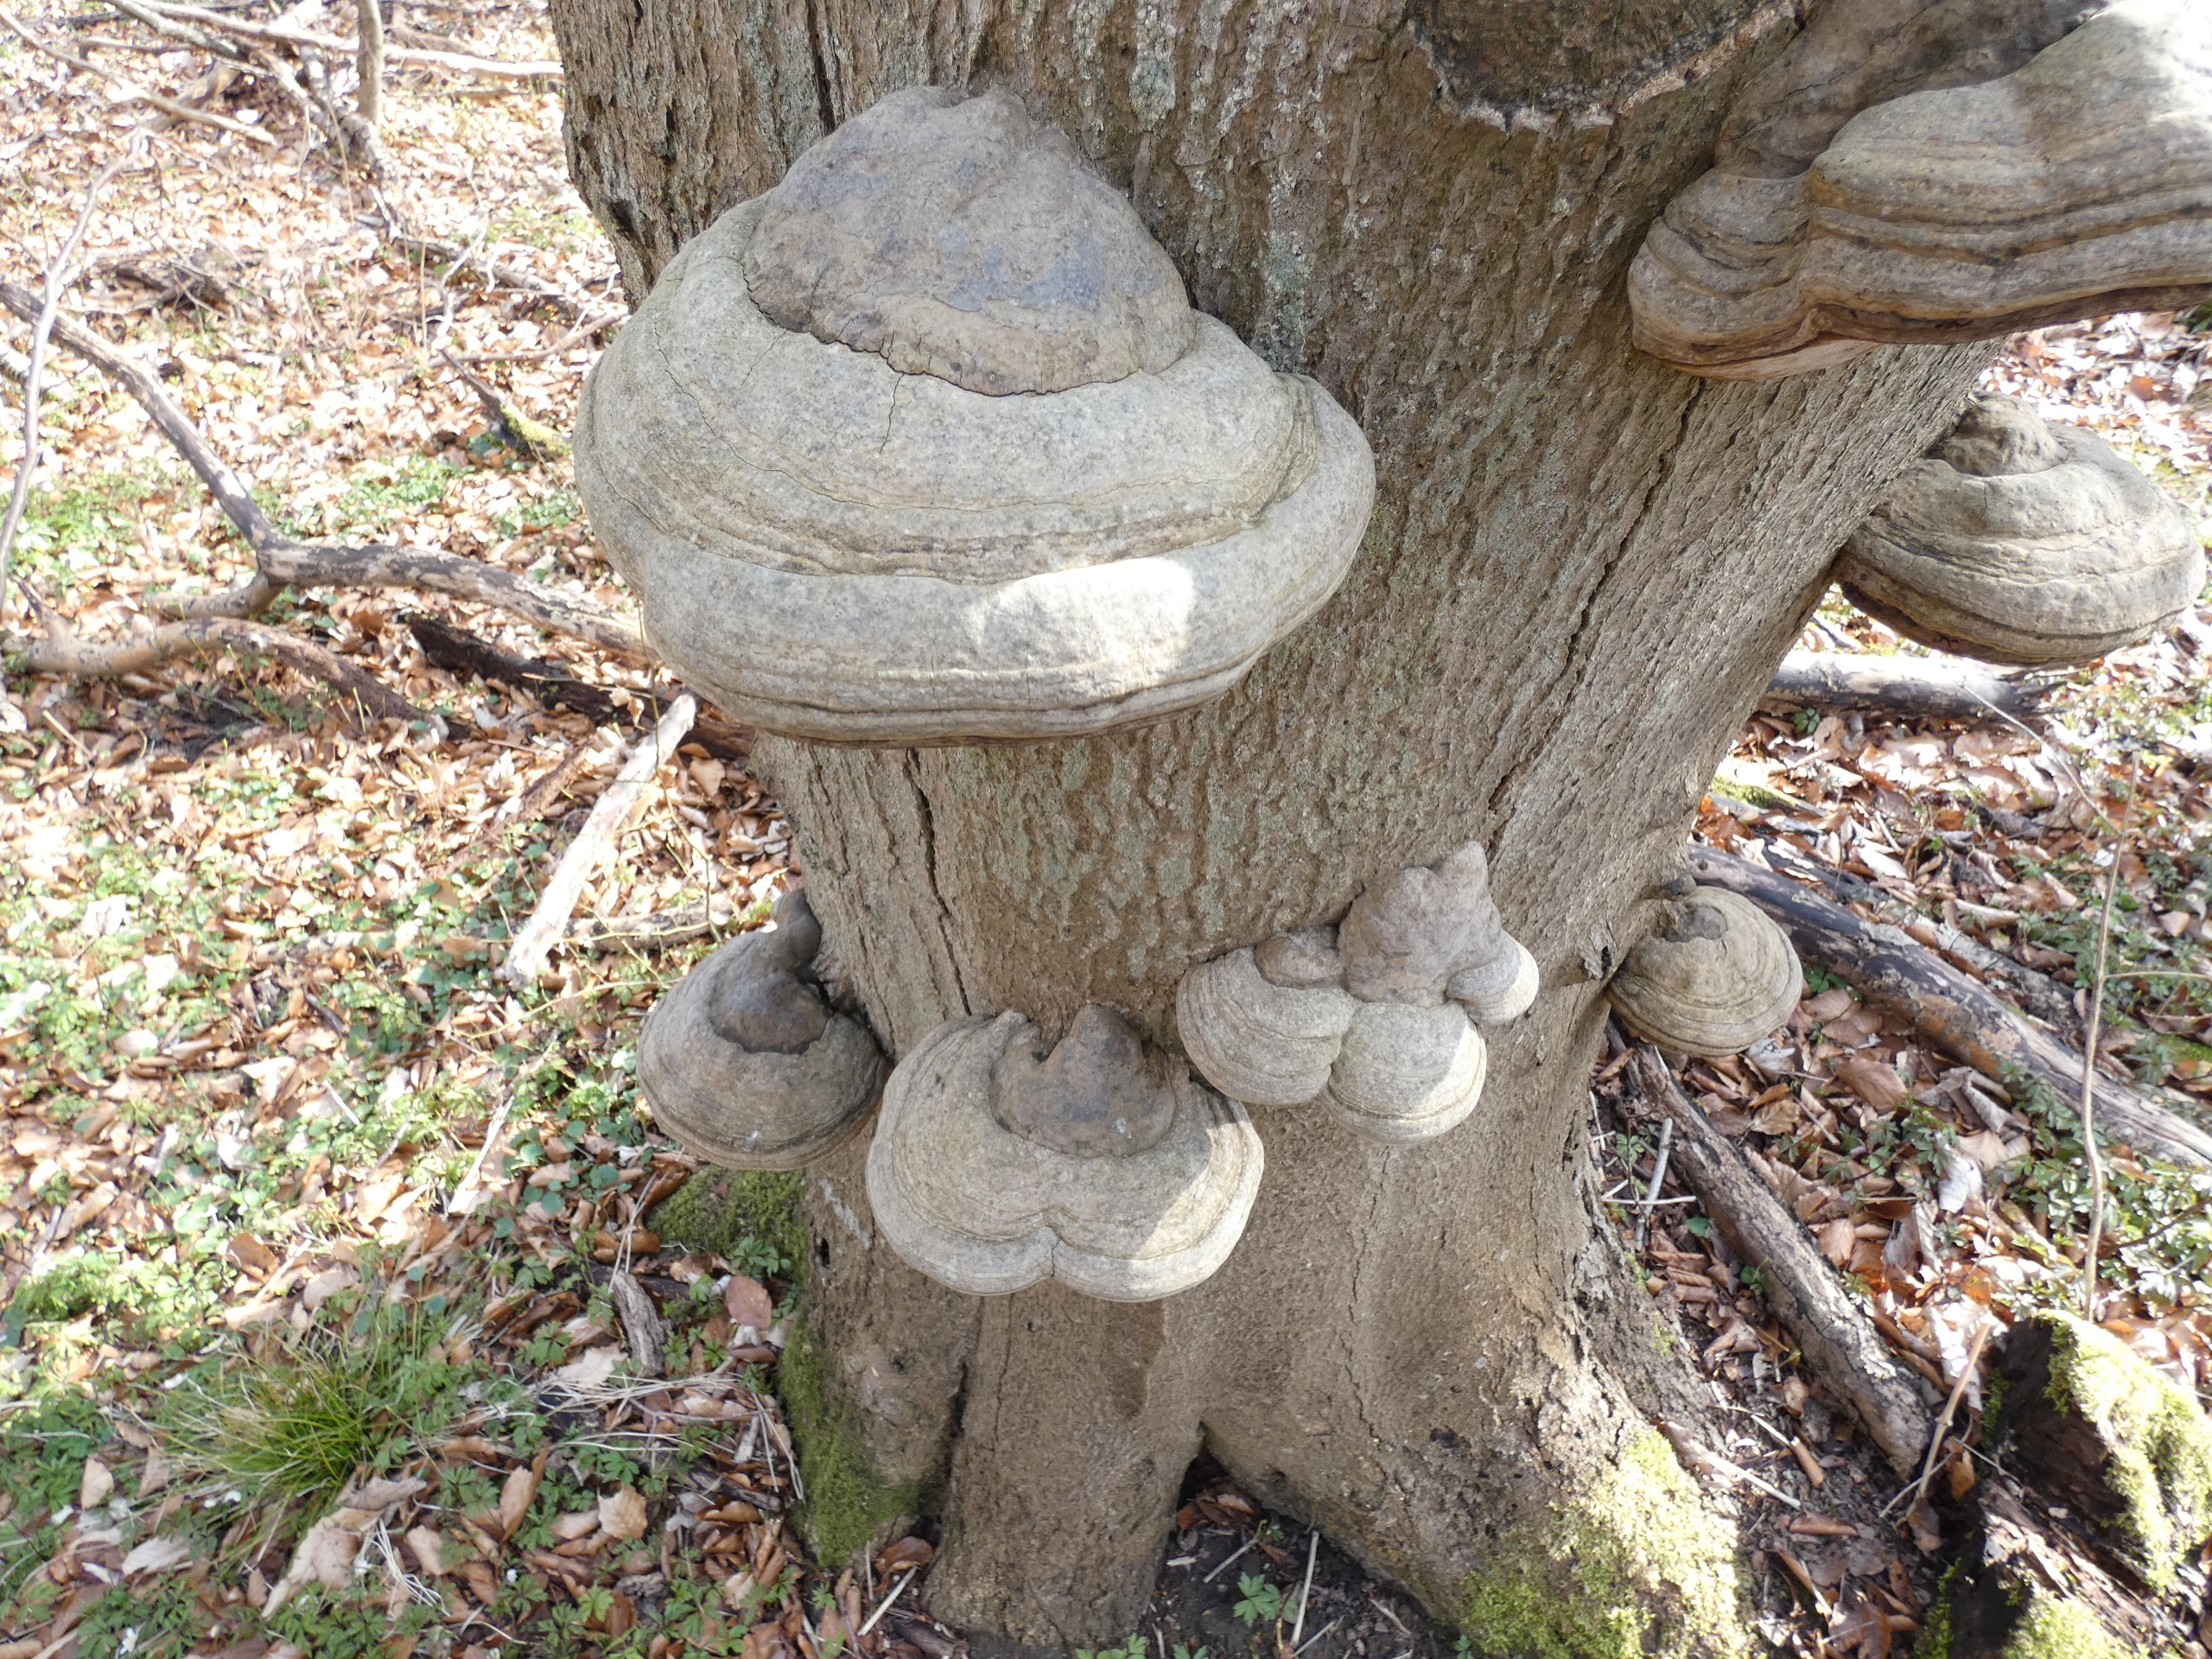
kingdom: Fungi
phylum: Basidiomycota
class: Agaricomycetes
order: Polyporales
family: Polyporaceae
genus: Fomes
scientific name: Fomes fomentarius
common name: Tøndersvamp
